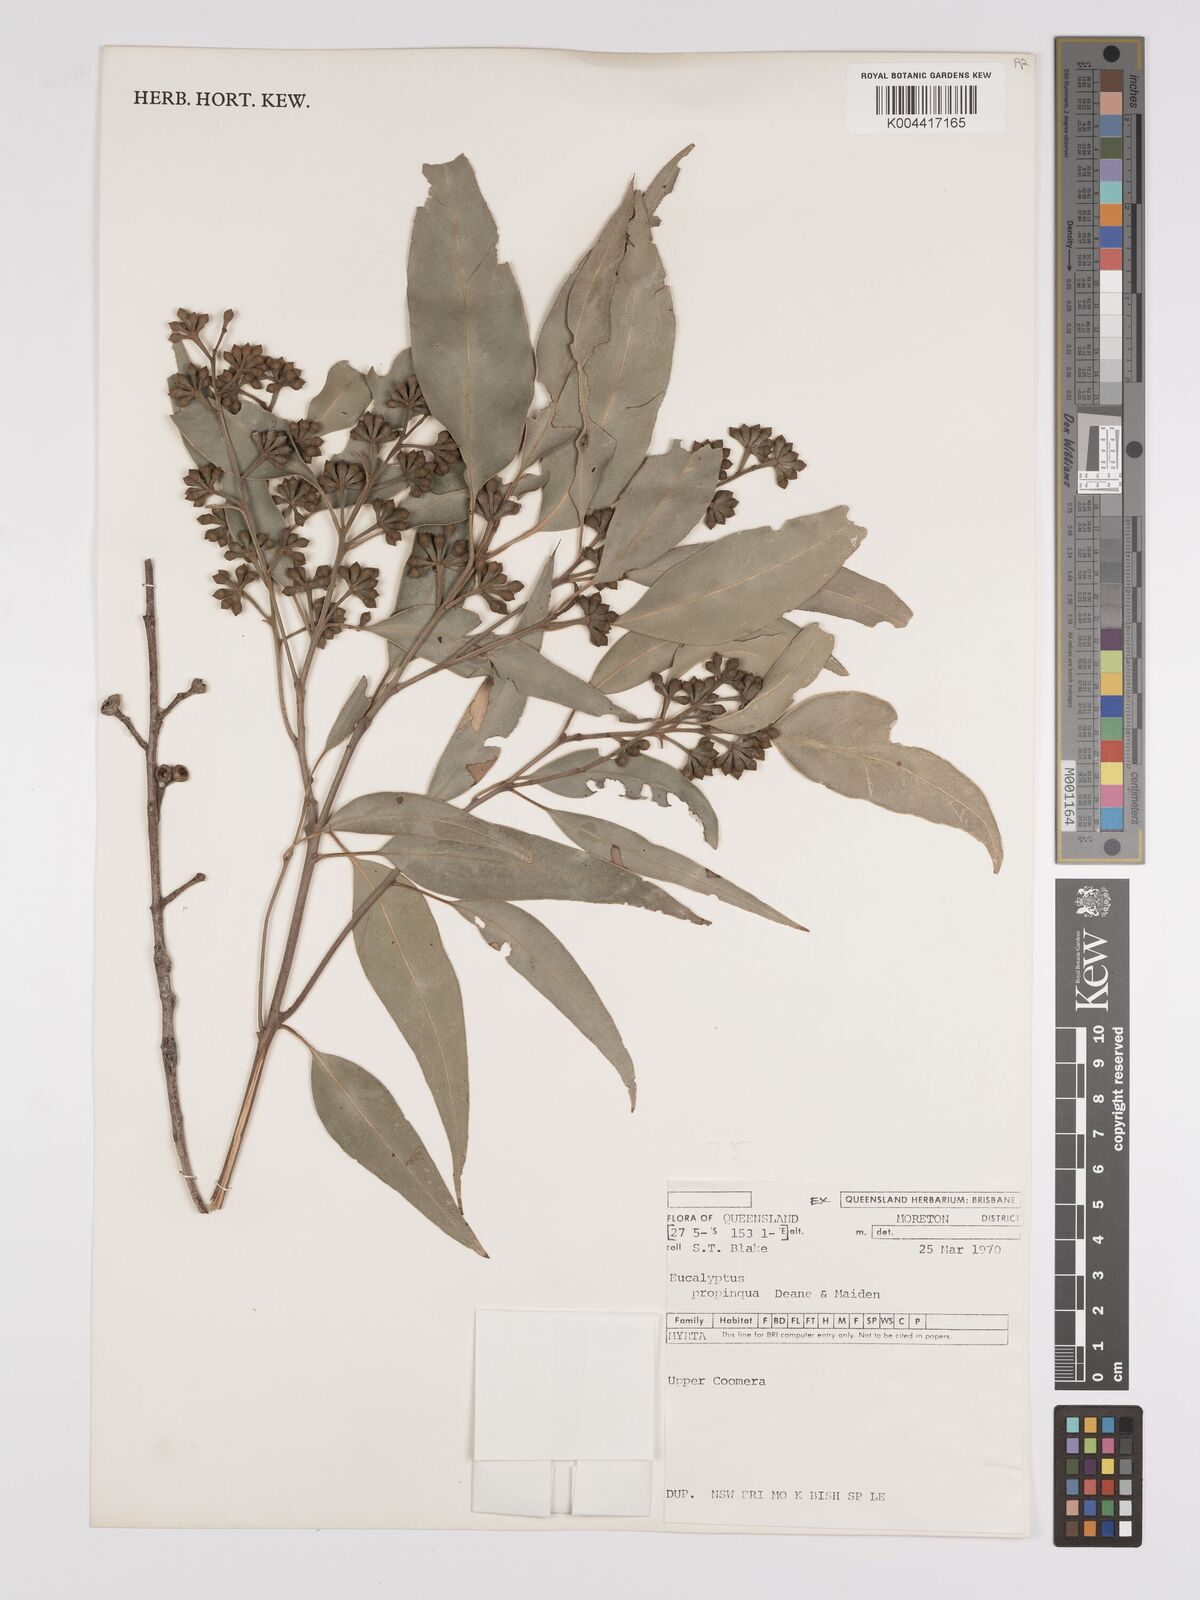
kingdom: Plantae
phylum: Tracheophyta
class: Magnoliopsida
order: Myrtales
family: Myrtaceae
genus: Eucalyptus
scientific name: Eucalyptus
